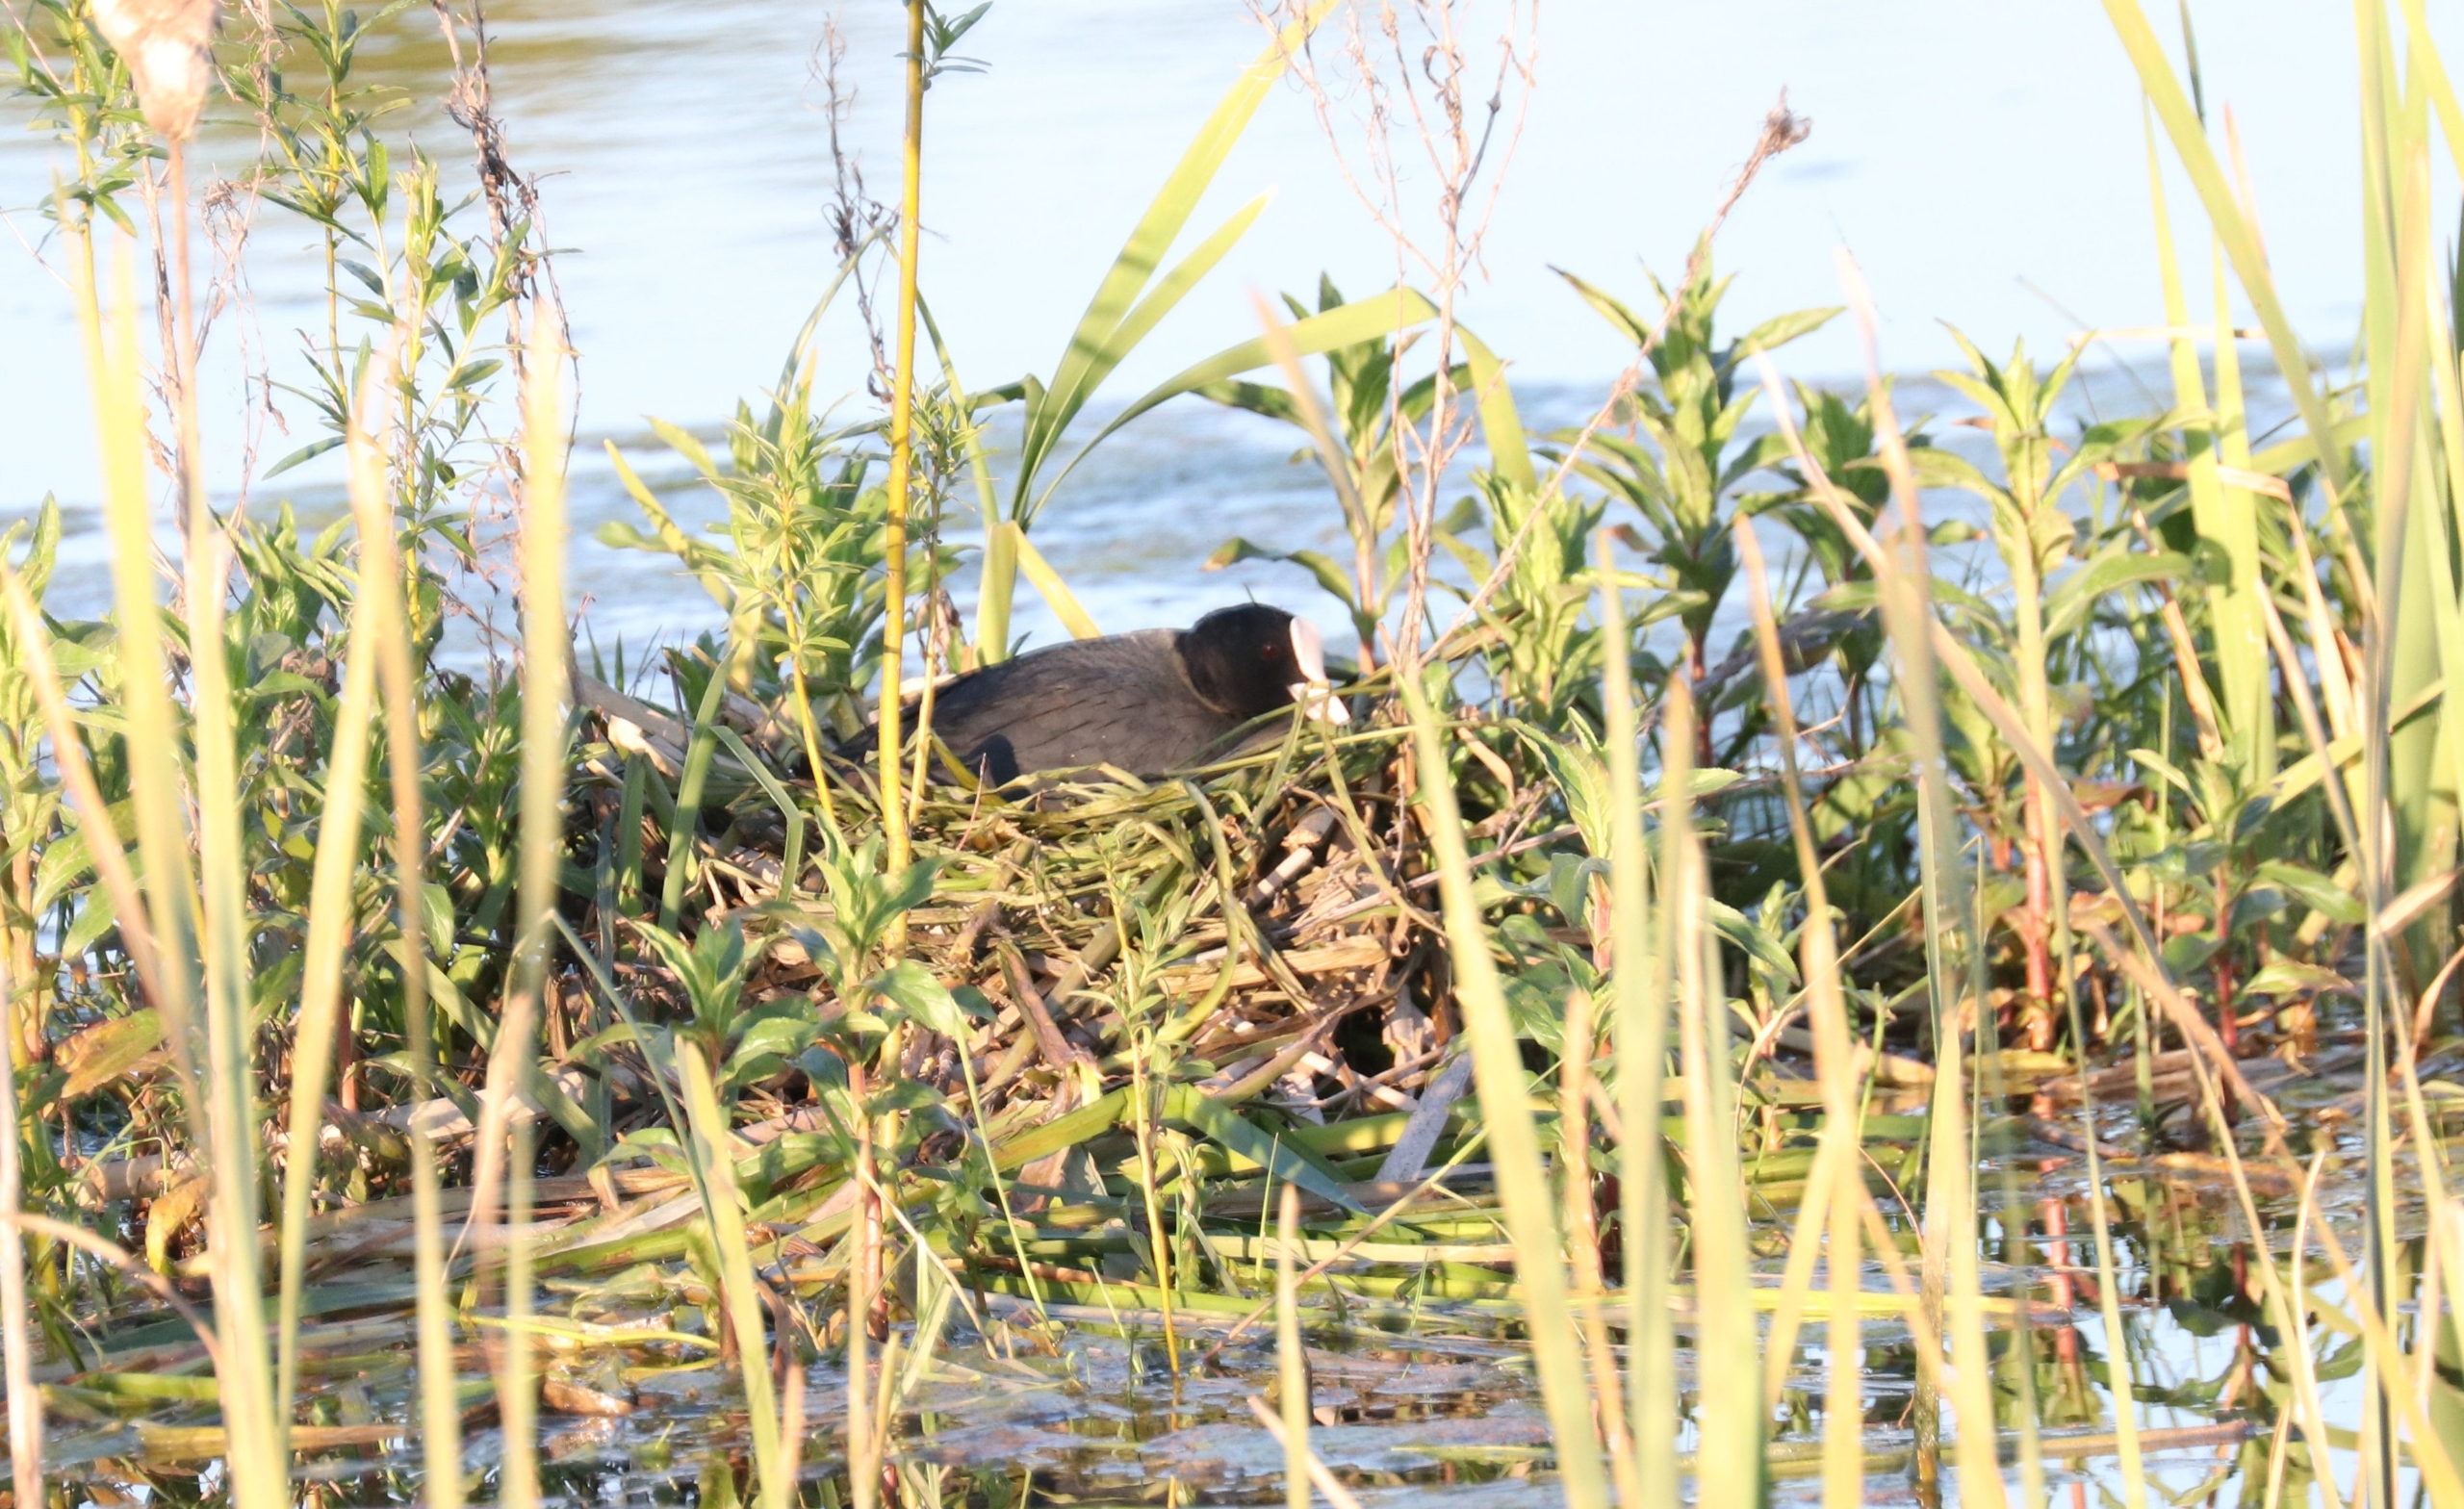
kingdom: Animalia
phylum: Chordata
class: Aves
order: Gruiformes
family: Rallidae
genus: Fulica
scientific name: Fulica atra
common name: Blishøne
